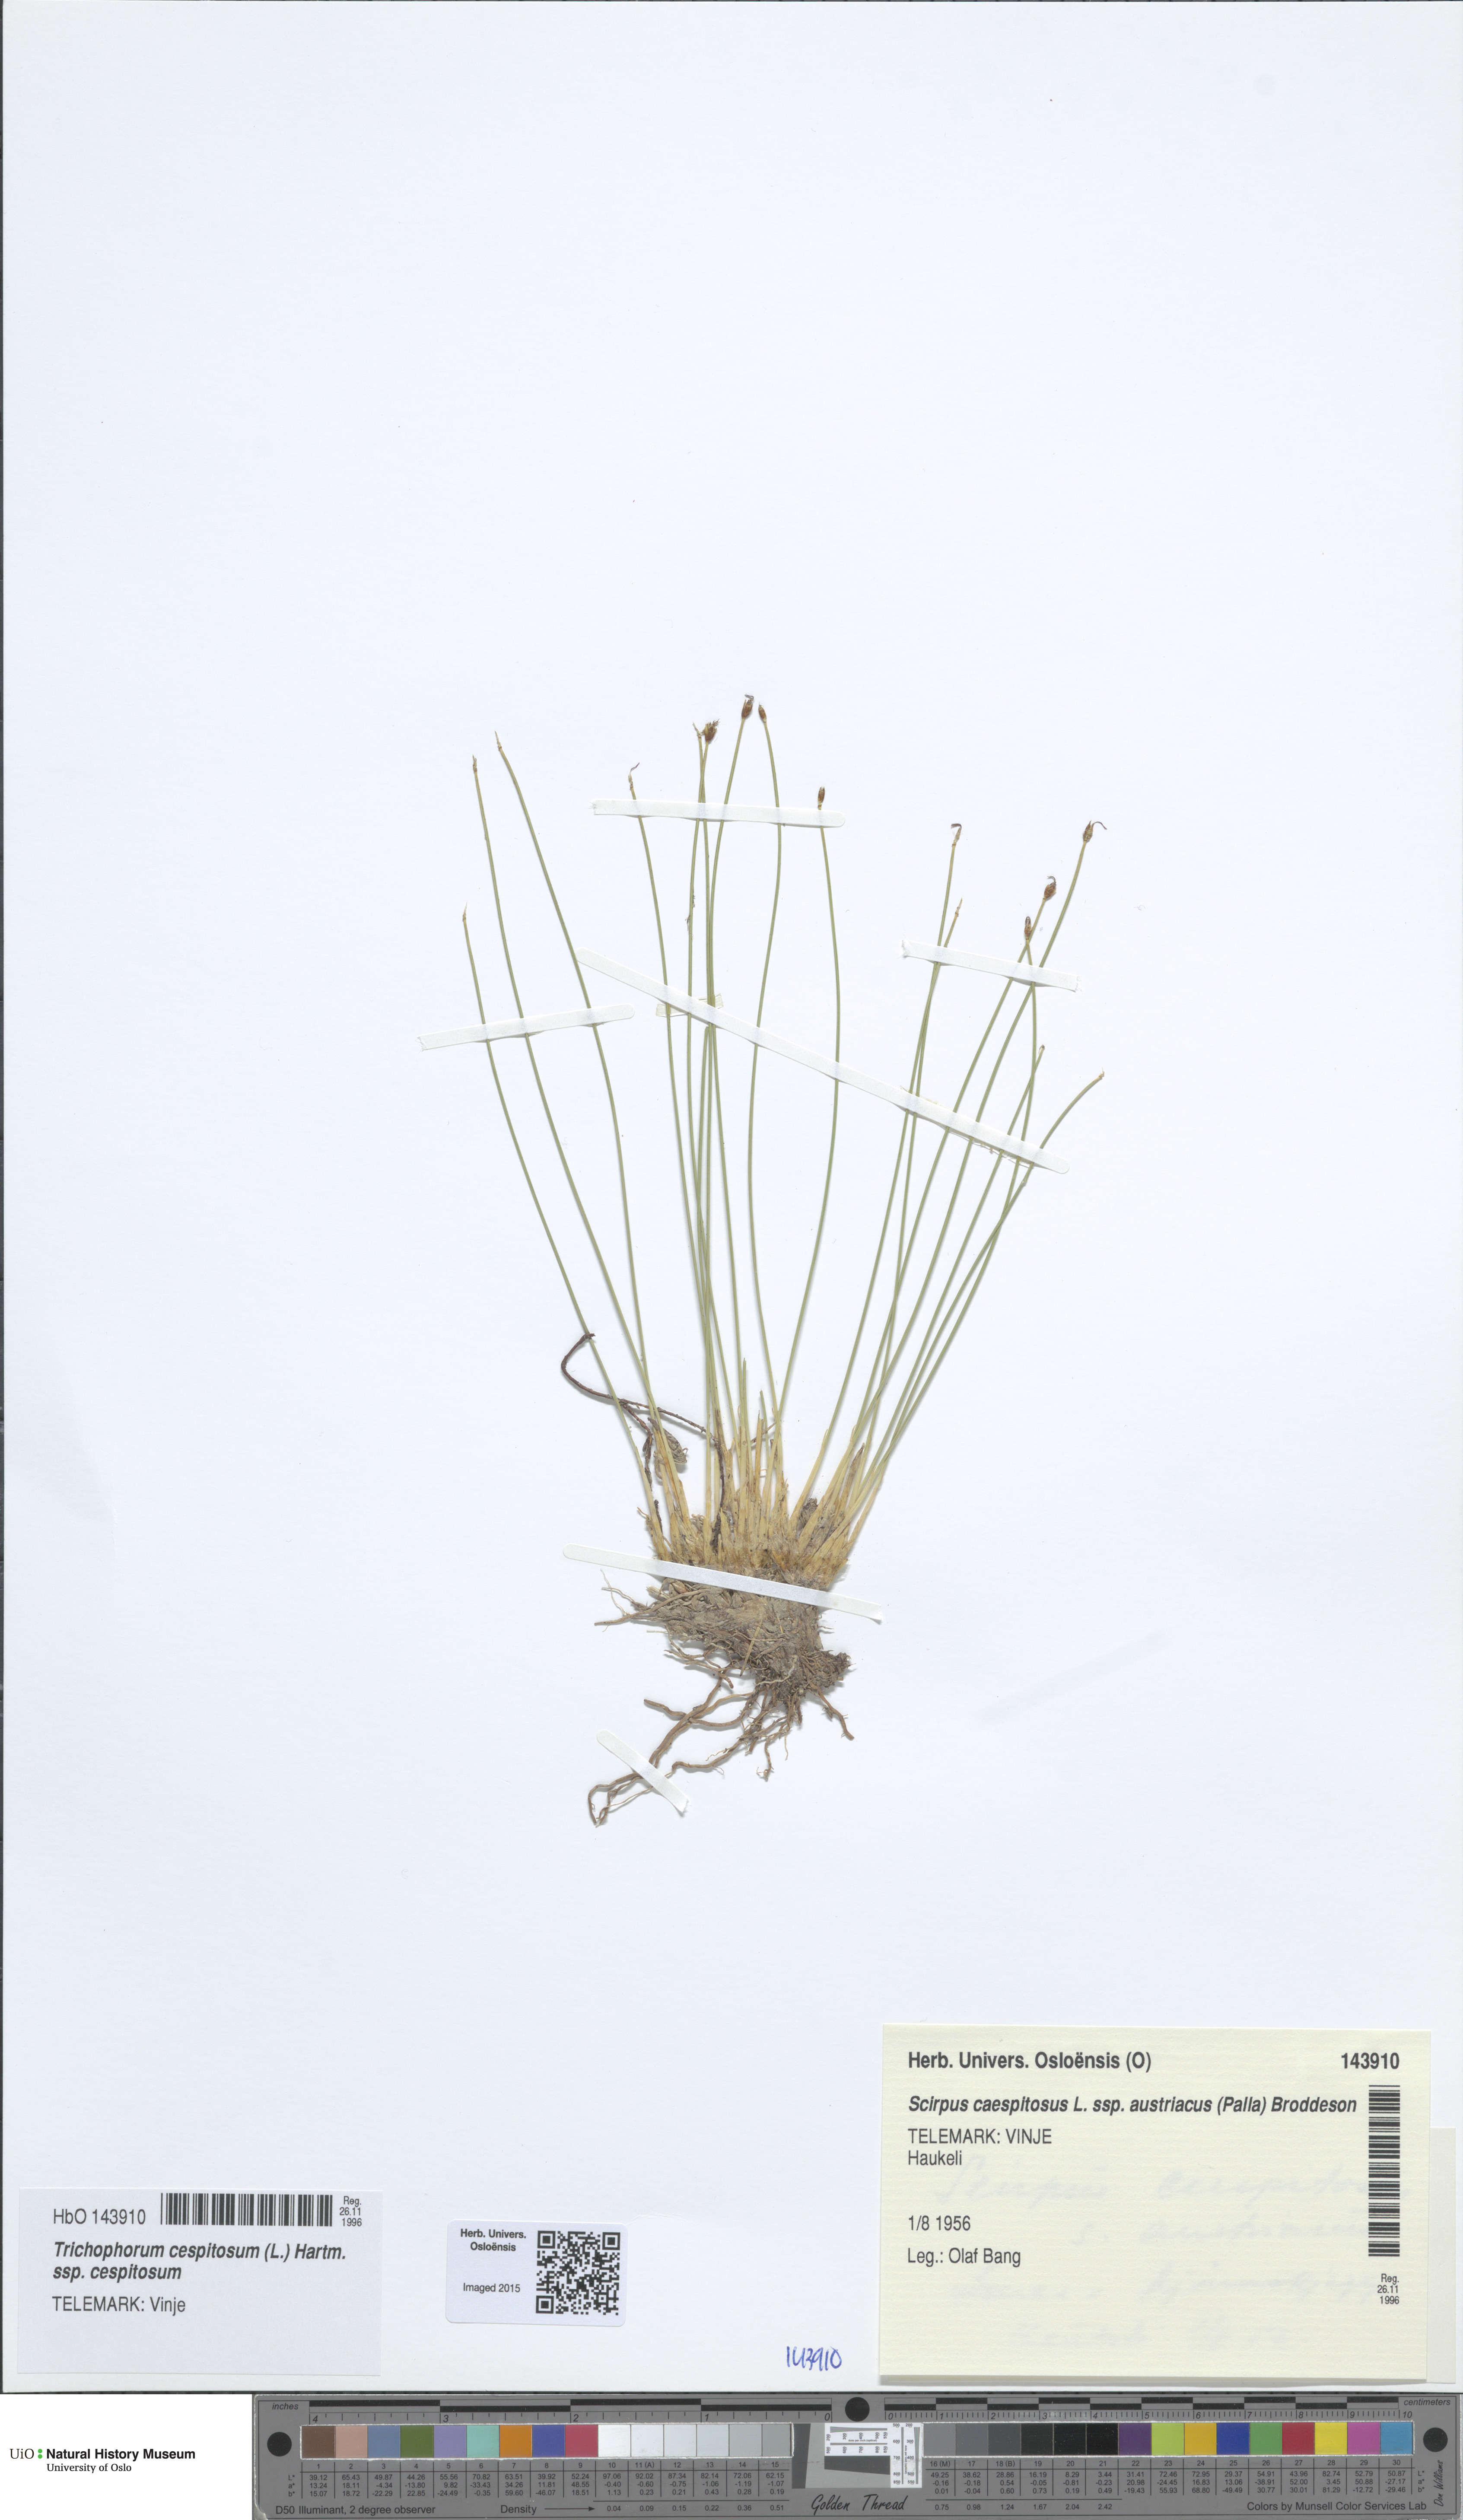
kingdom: Plantae
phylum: Tracheophyta
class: Liliopsida
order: Poales
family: Cyperaceae
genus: Trichophorum
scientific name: Trichophorum cespitosum
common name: Cespitose bulrush
